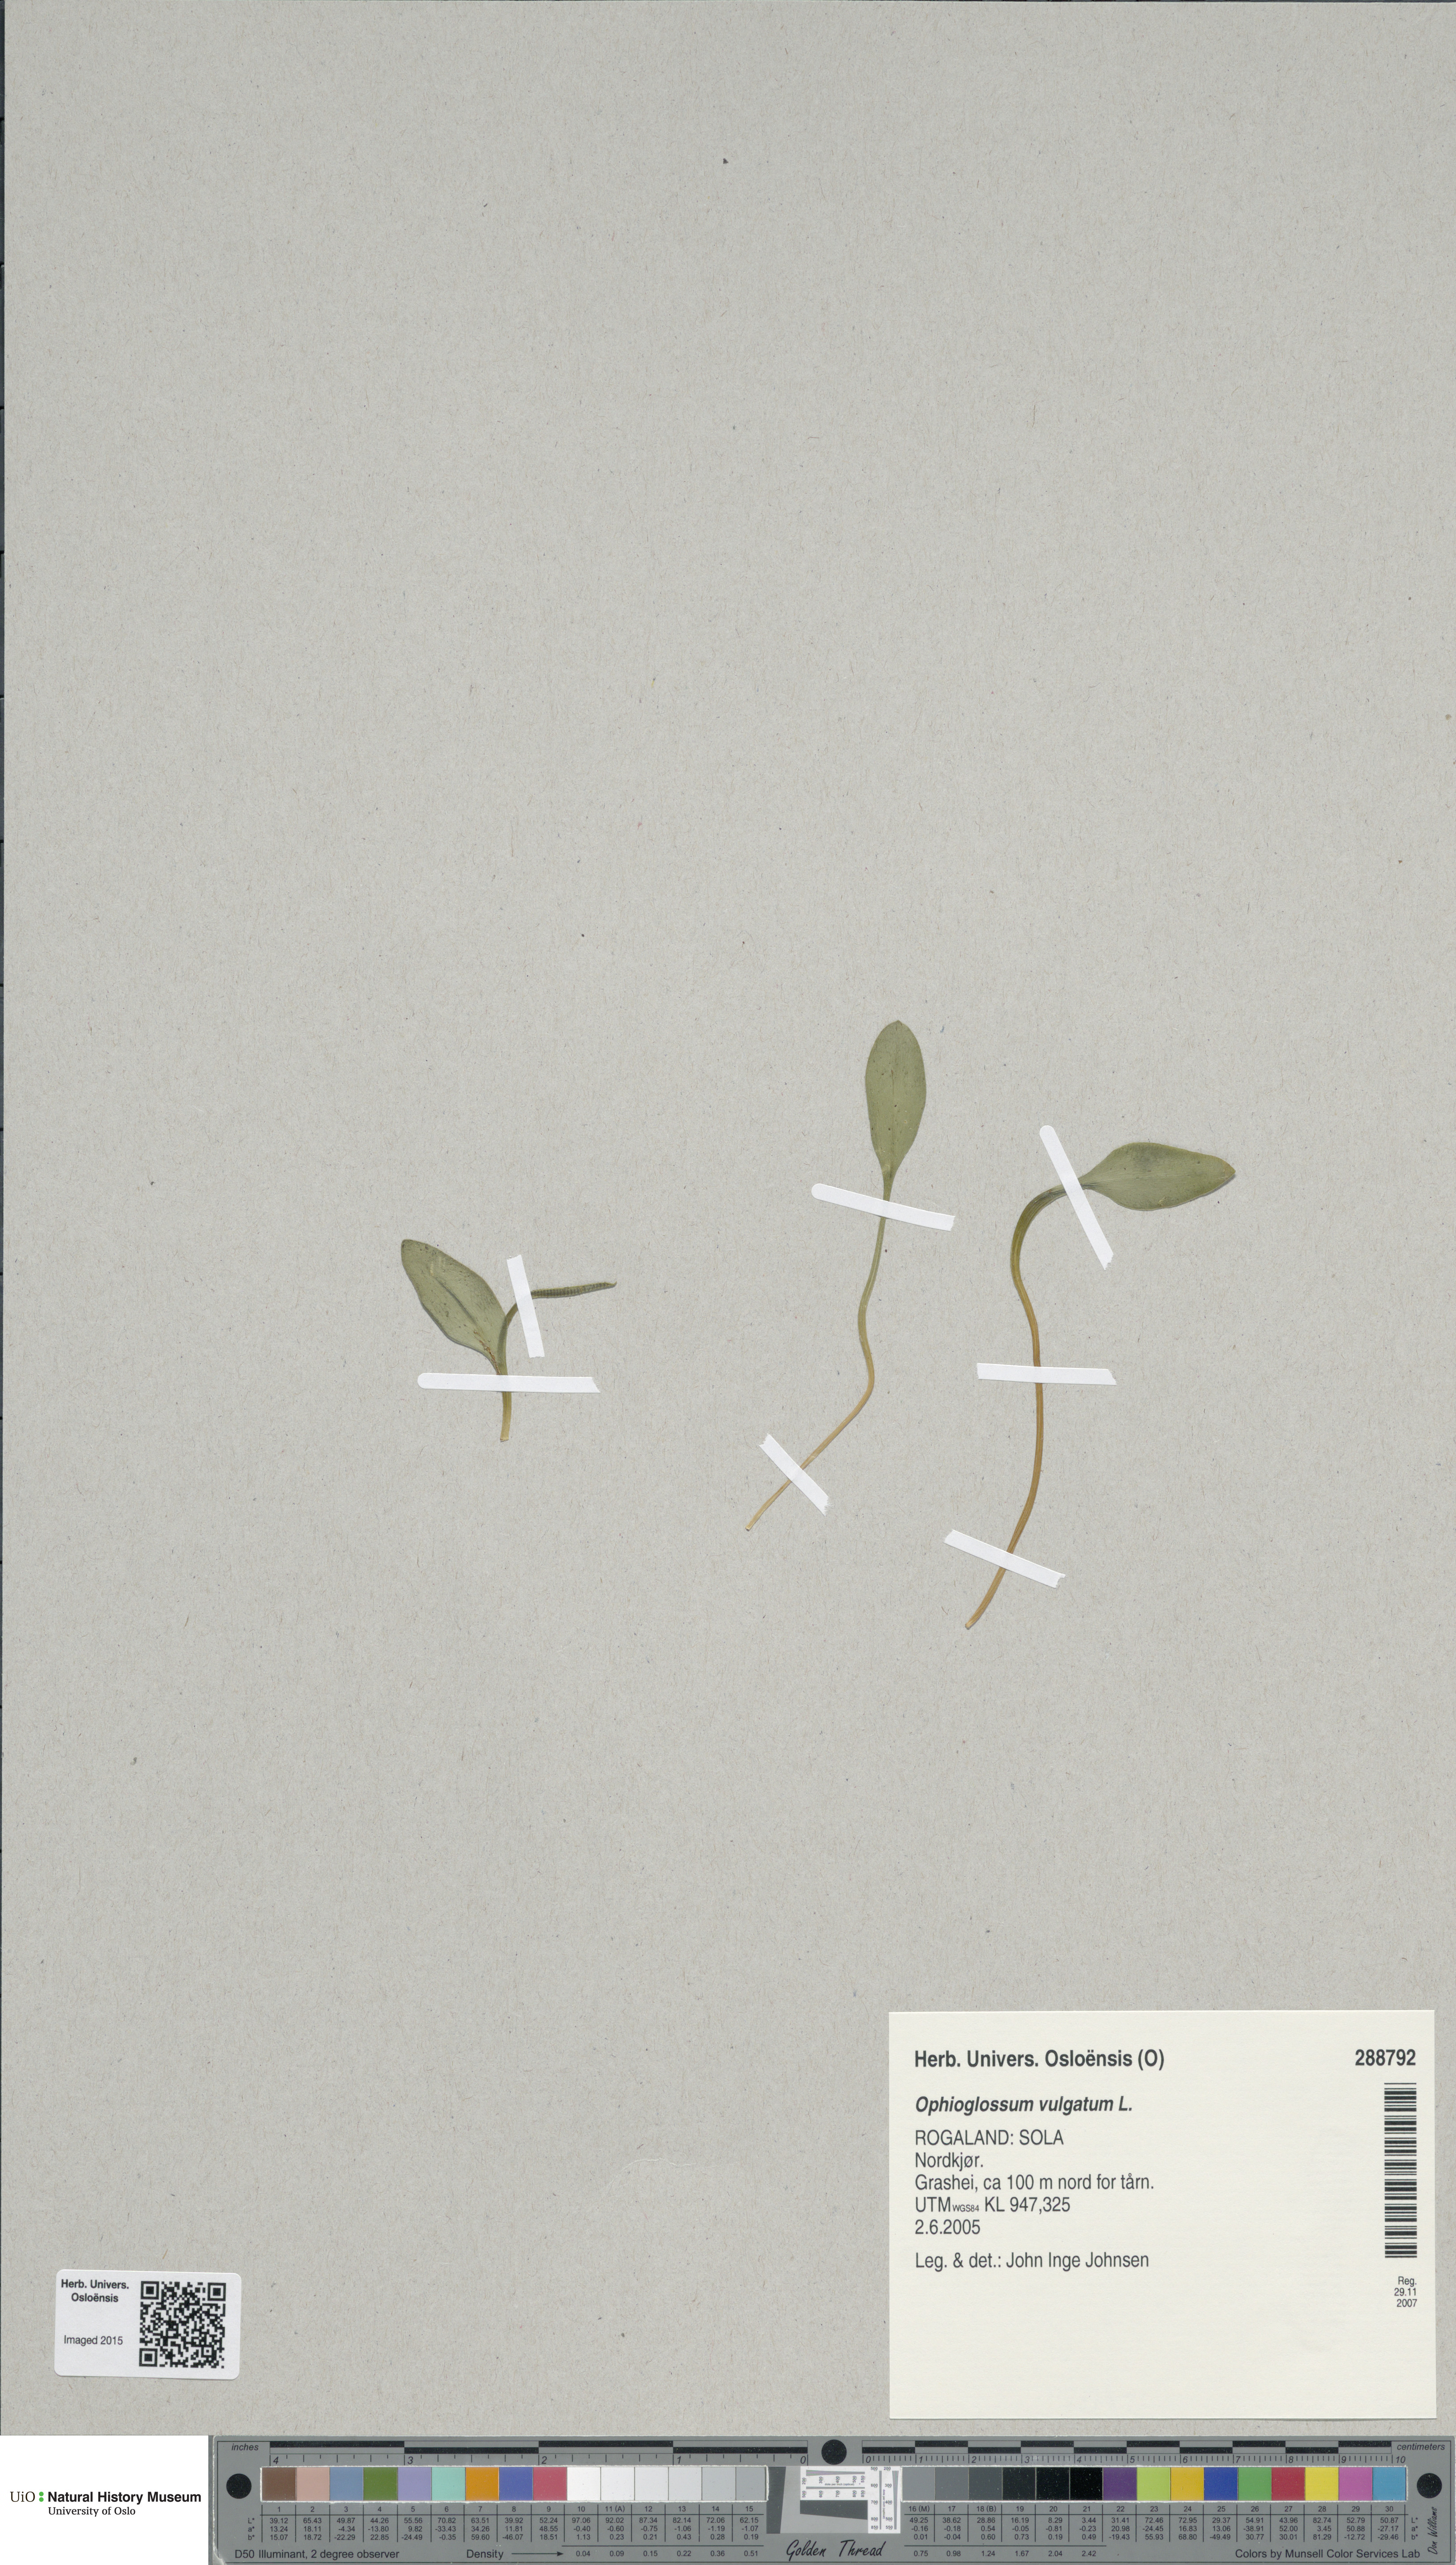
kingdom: Plantae
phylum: Tracheophyta
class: Polypodiopsida
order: Ophioglossales
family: Ophioglossaceae
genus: Ophioglossum
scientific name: Ophioglossum vulgatum
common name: Adder's-tongue
